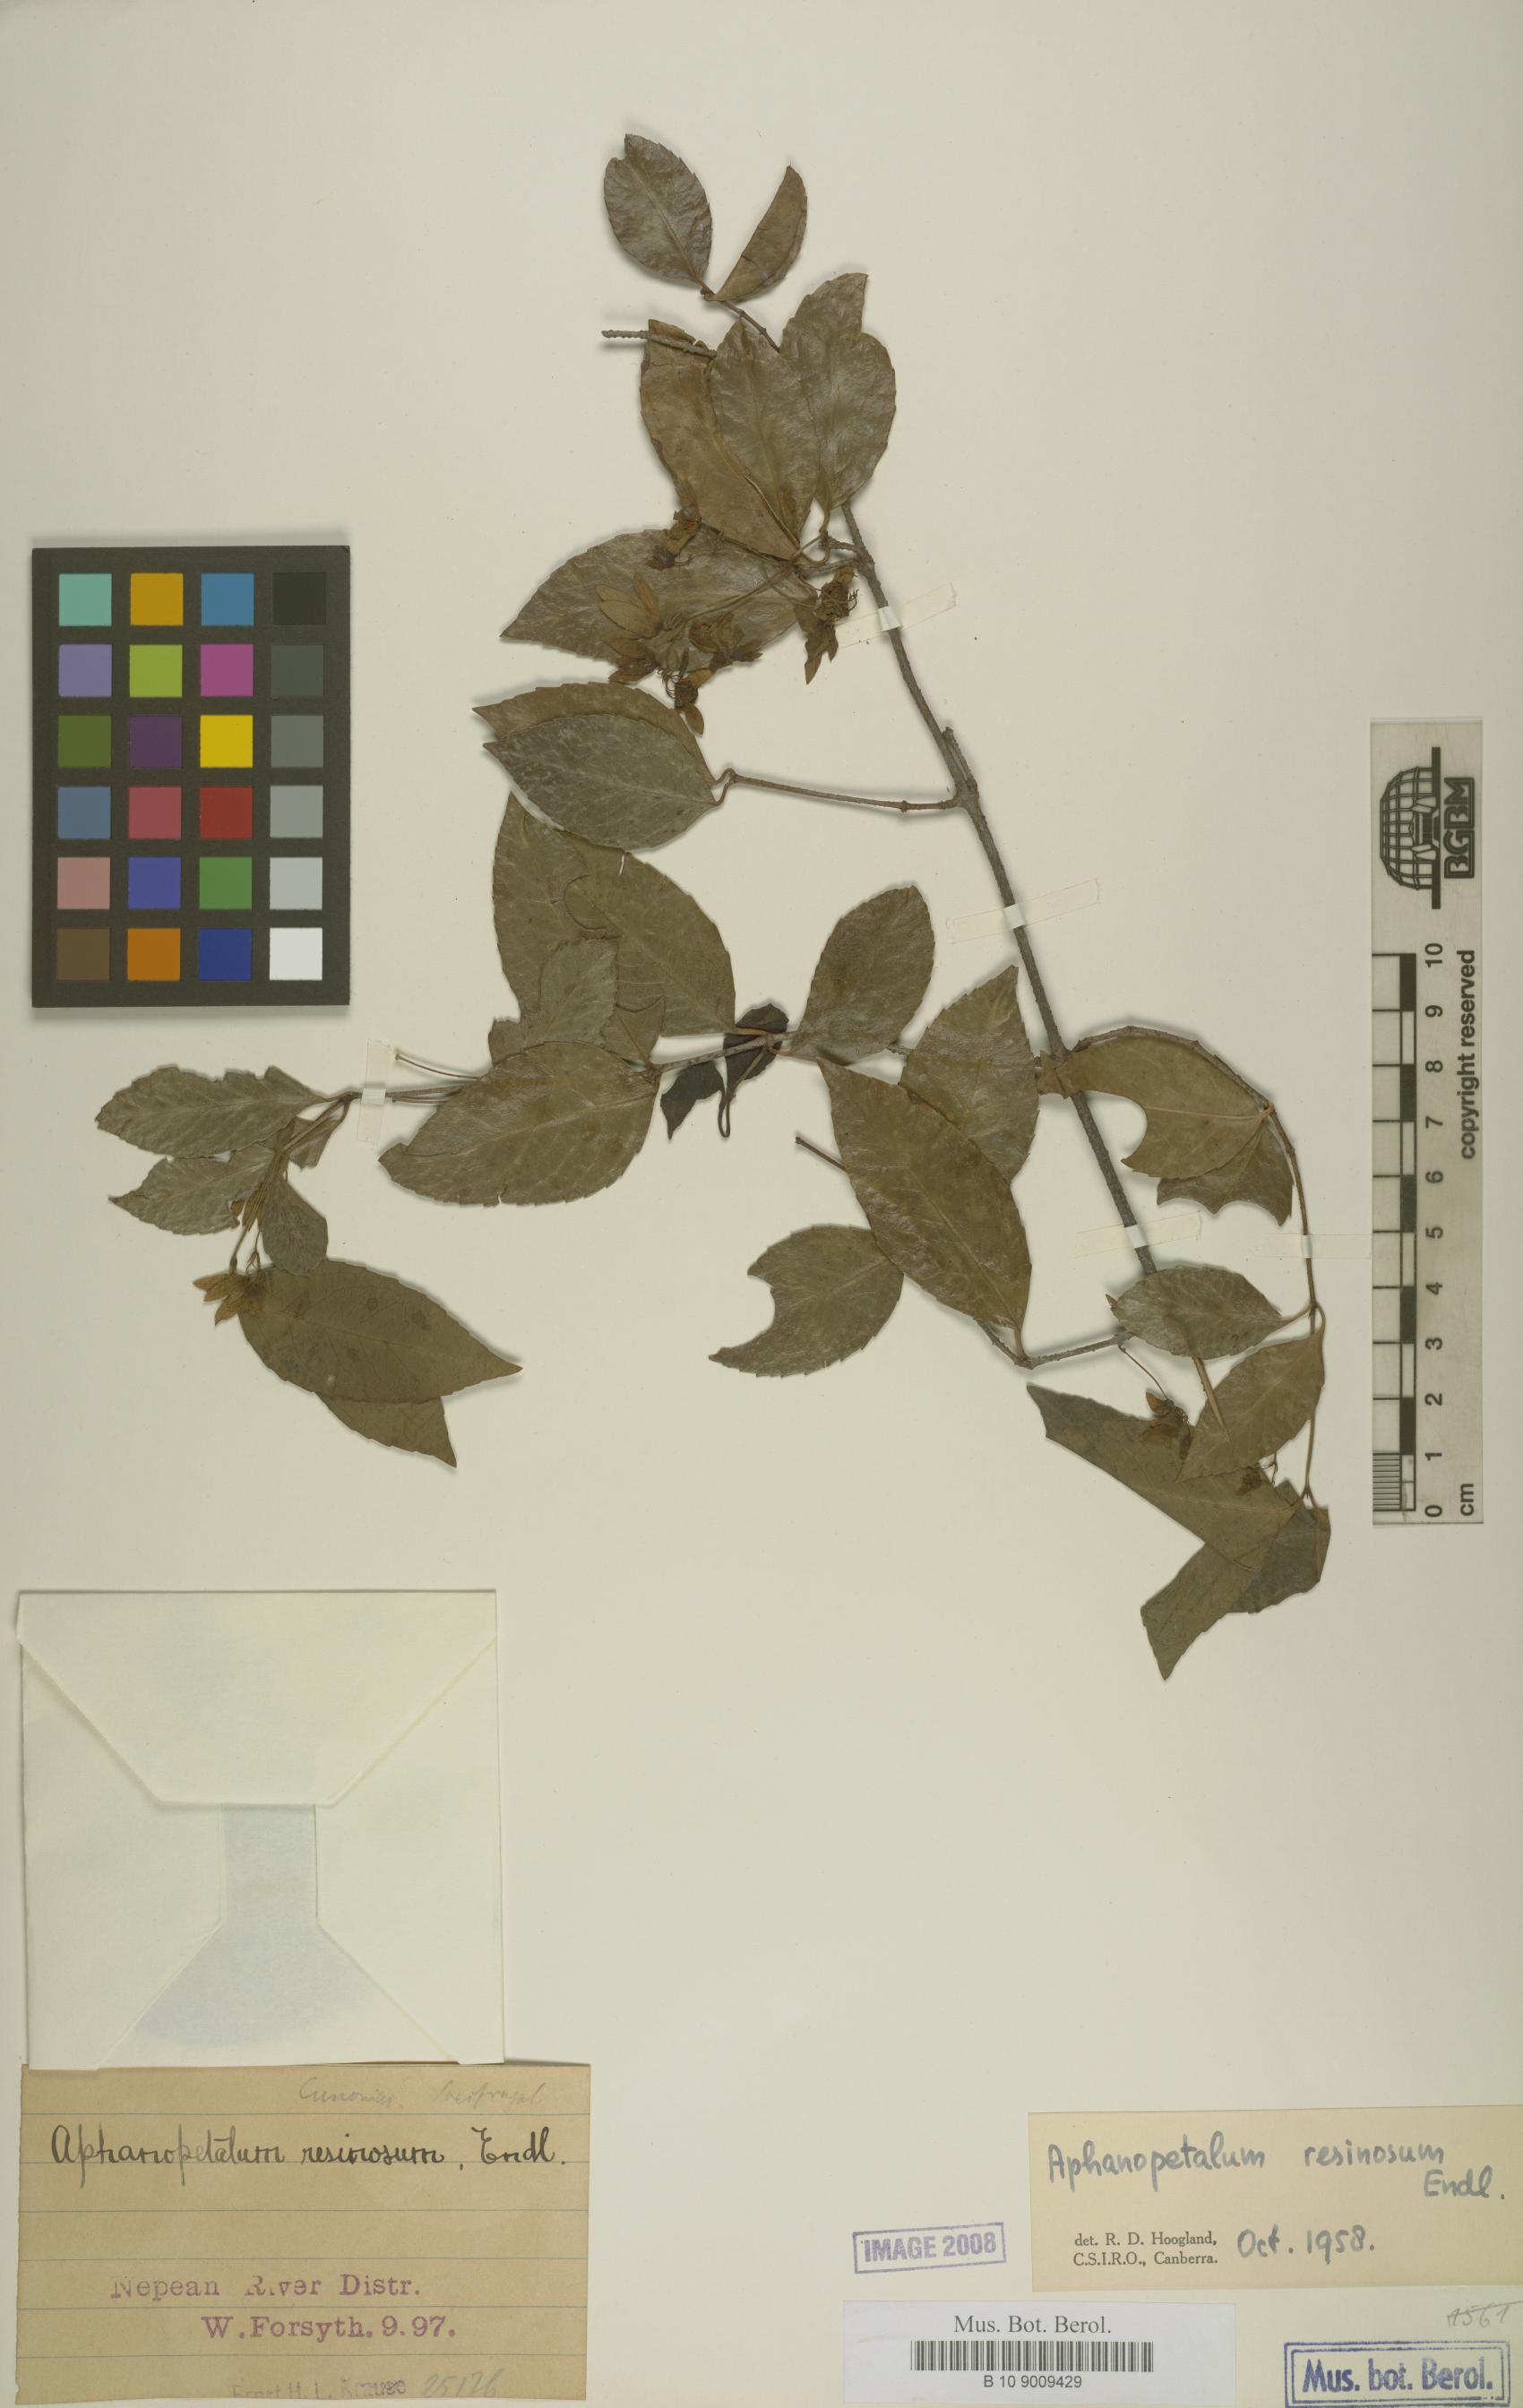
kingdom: Plantae
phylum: Tracheophyta
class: Magnoliopsida
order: Saxifragales
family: Aphanopetalaceae
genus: Aphanopetalum
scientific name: Aphanopetalum resinosum
